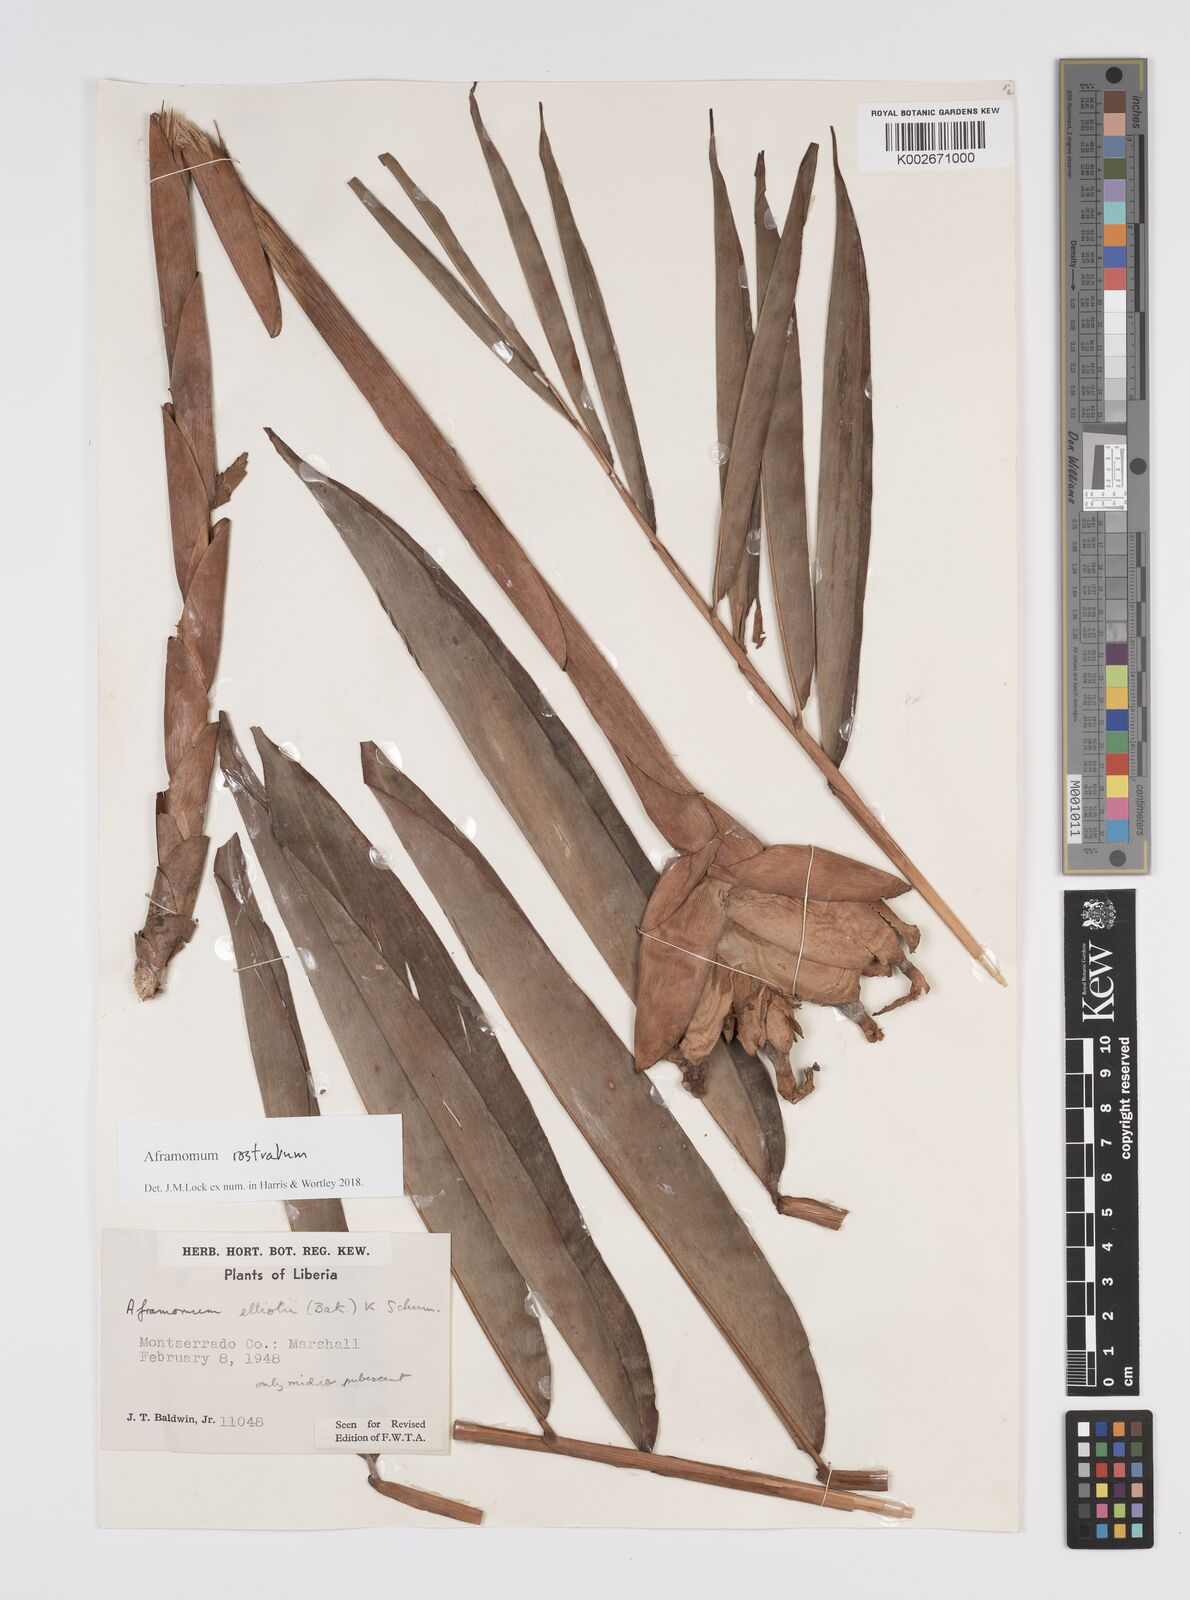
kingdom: Plantae
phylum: Tracheophyta
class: Liliopsida
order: Zingiberales
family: Zingiberaceae
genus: Aframomum
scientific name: Aframomum rostratum
